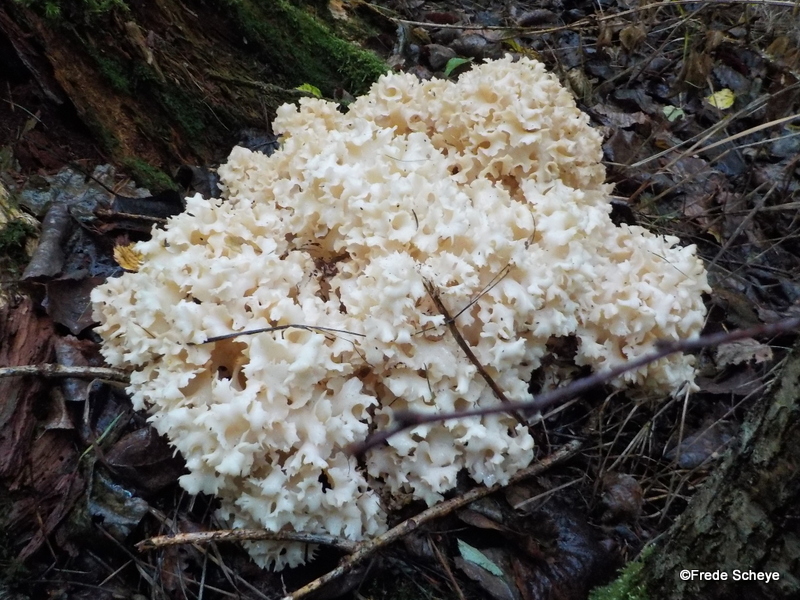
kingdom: Fungi
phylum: Basidiomycota
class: Agaricomycetes
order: Polyporales
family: Sparassidaceae
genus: Sparassis
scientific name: Sparassis crispa
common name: kruset blomkålssvamp
